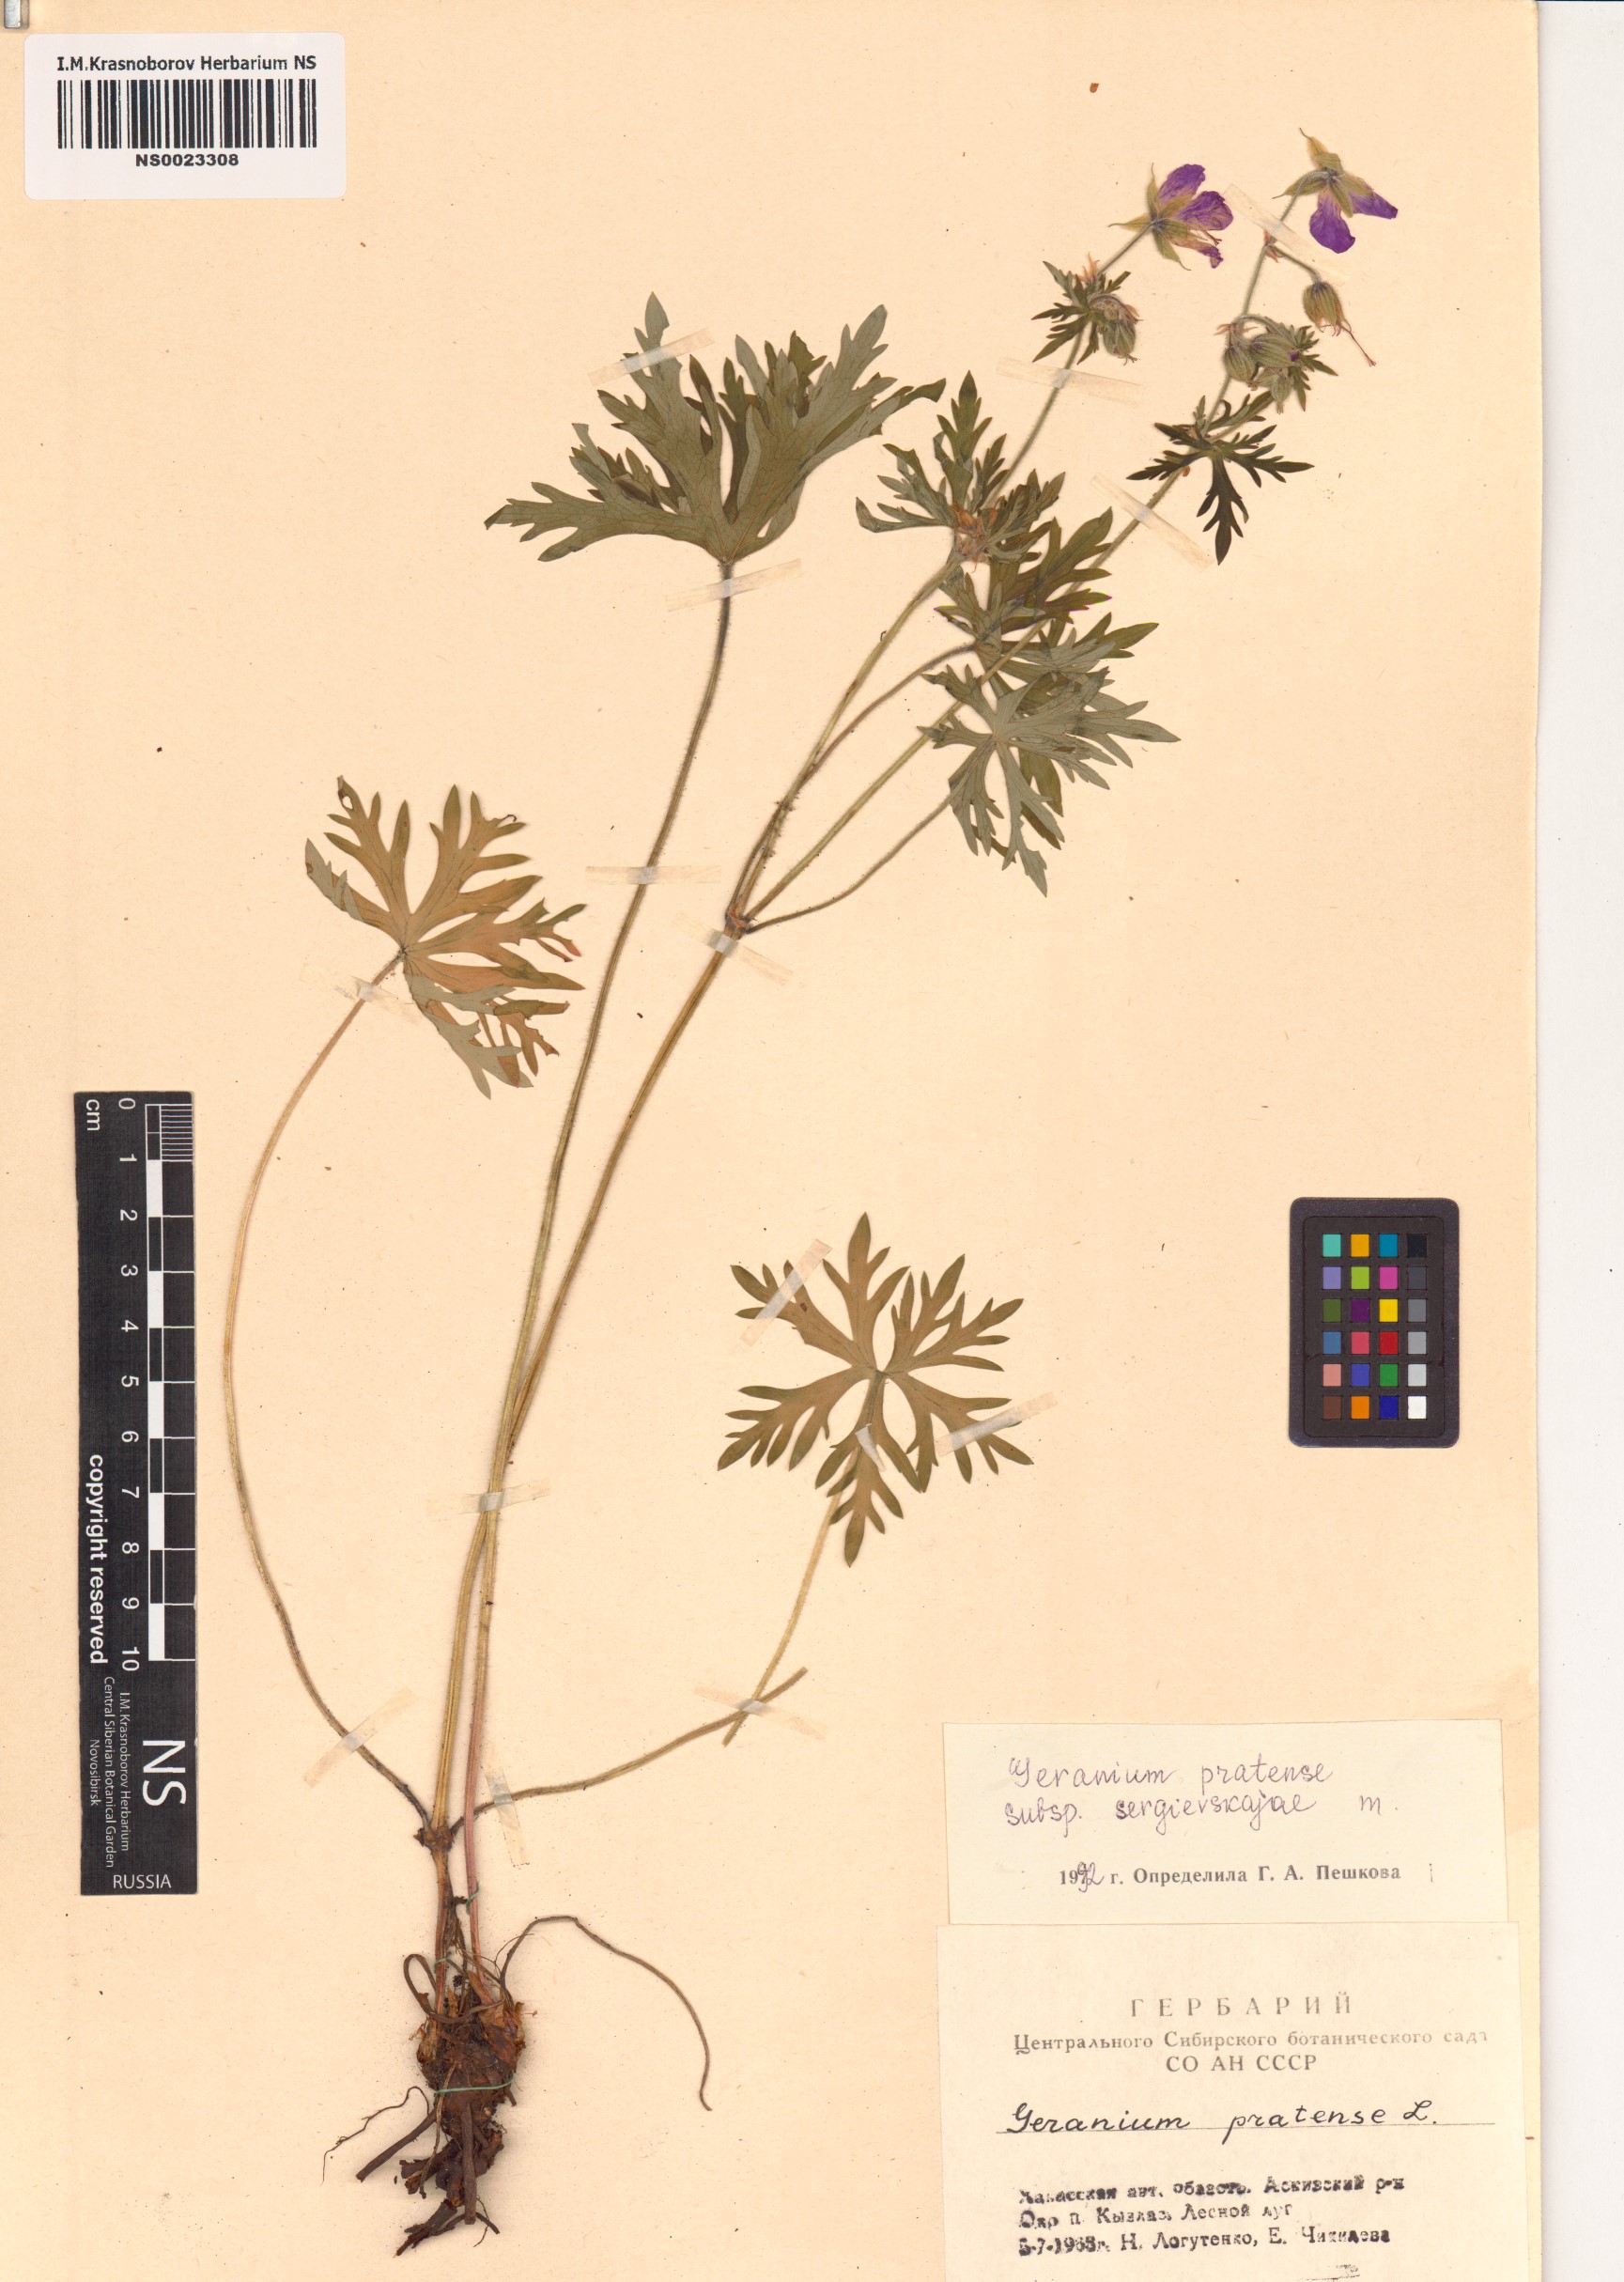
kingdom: Plantae
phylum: Tracheophyta
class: Magnoliopsida
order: Geraniales
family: Geraniaceae
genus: Geranium
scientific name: Geranium pratense
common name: Meadow crane's-bill
